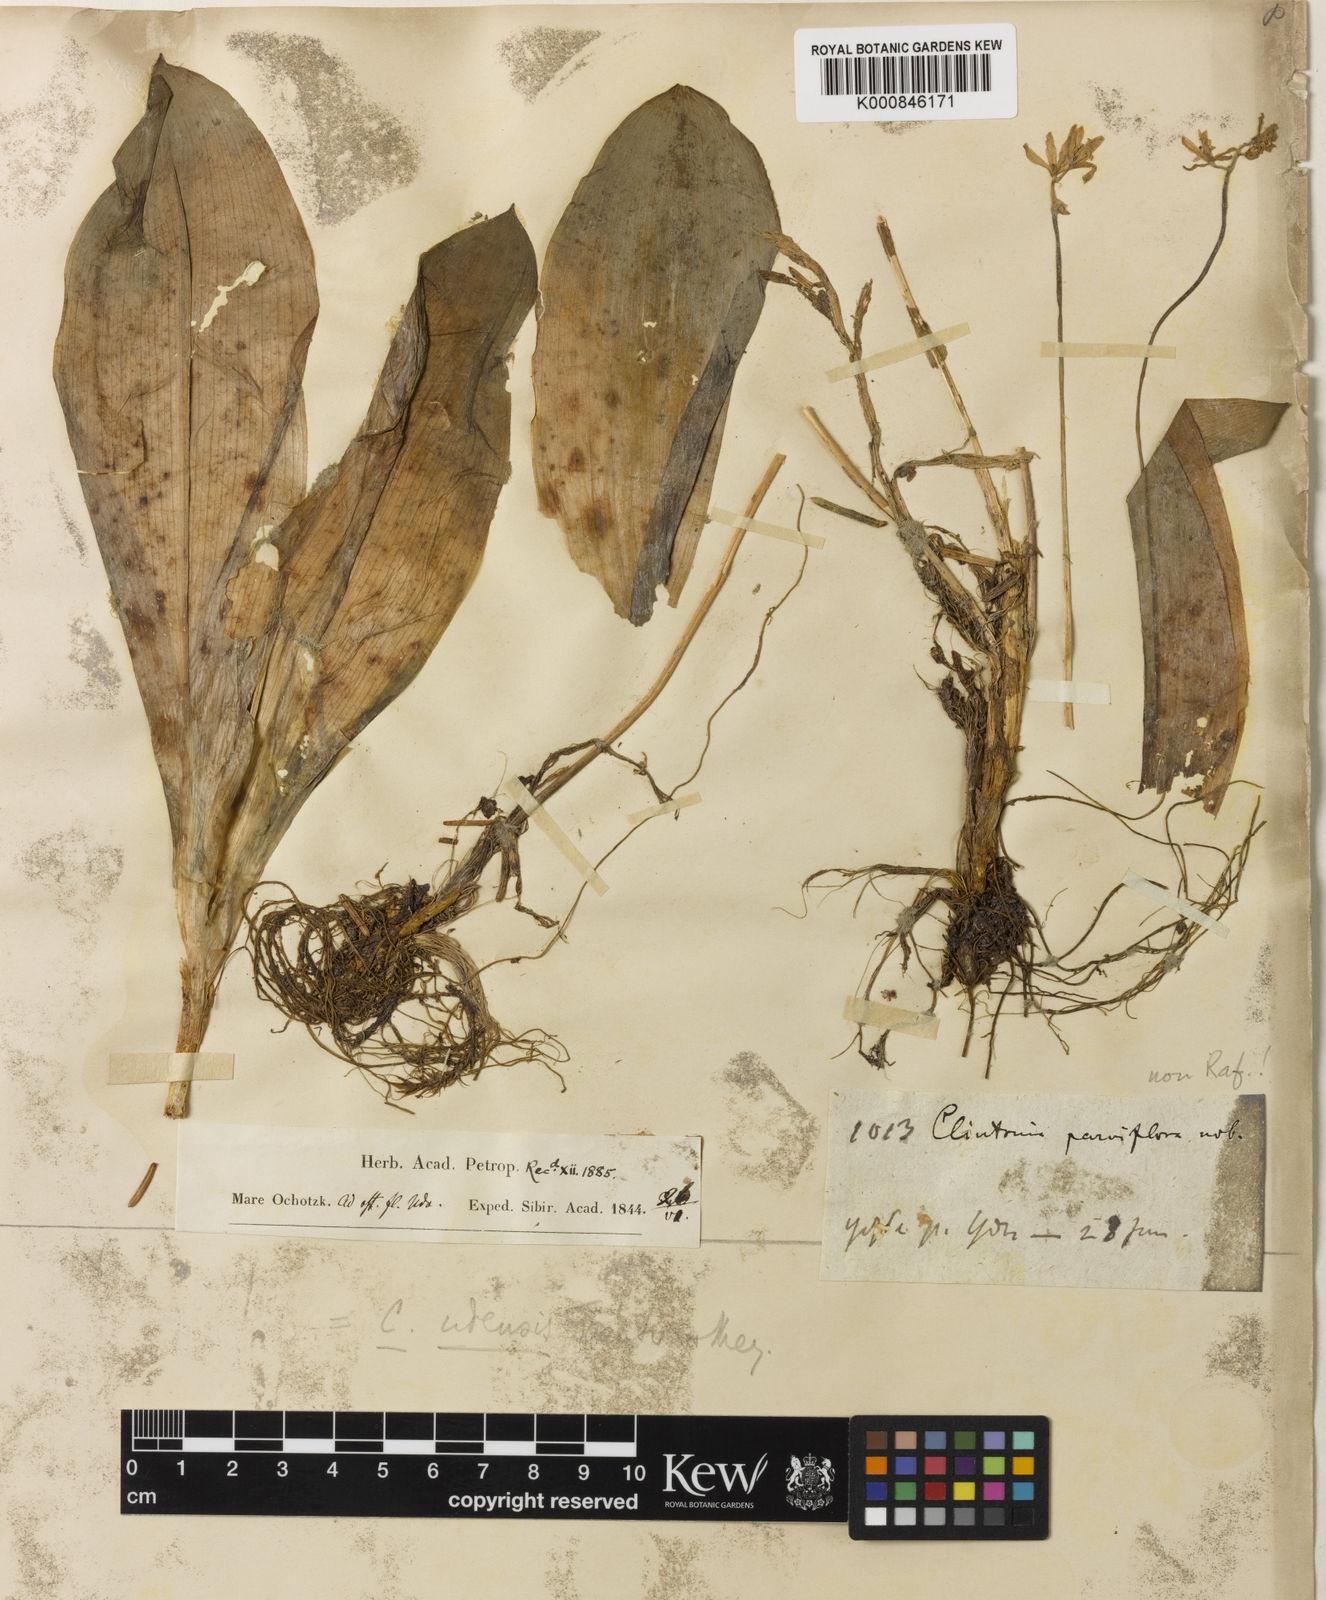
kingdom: Plantae
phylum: Tracheophyta
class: Liliopsida
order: Liliales
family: Liliaceae
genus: Clintonia
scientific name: Clintonia udensis
